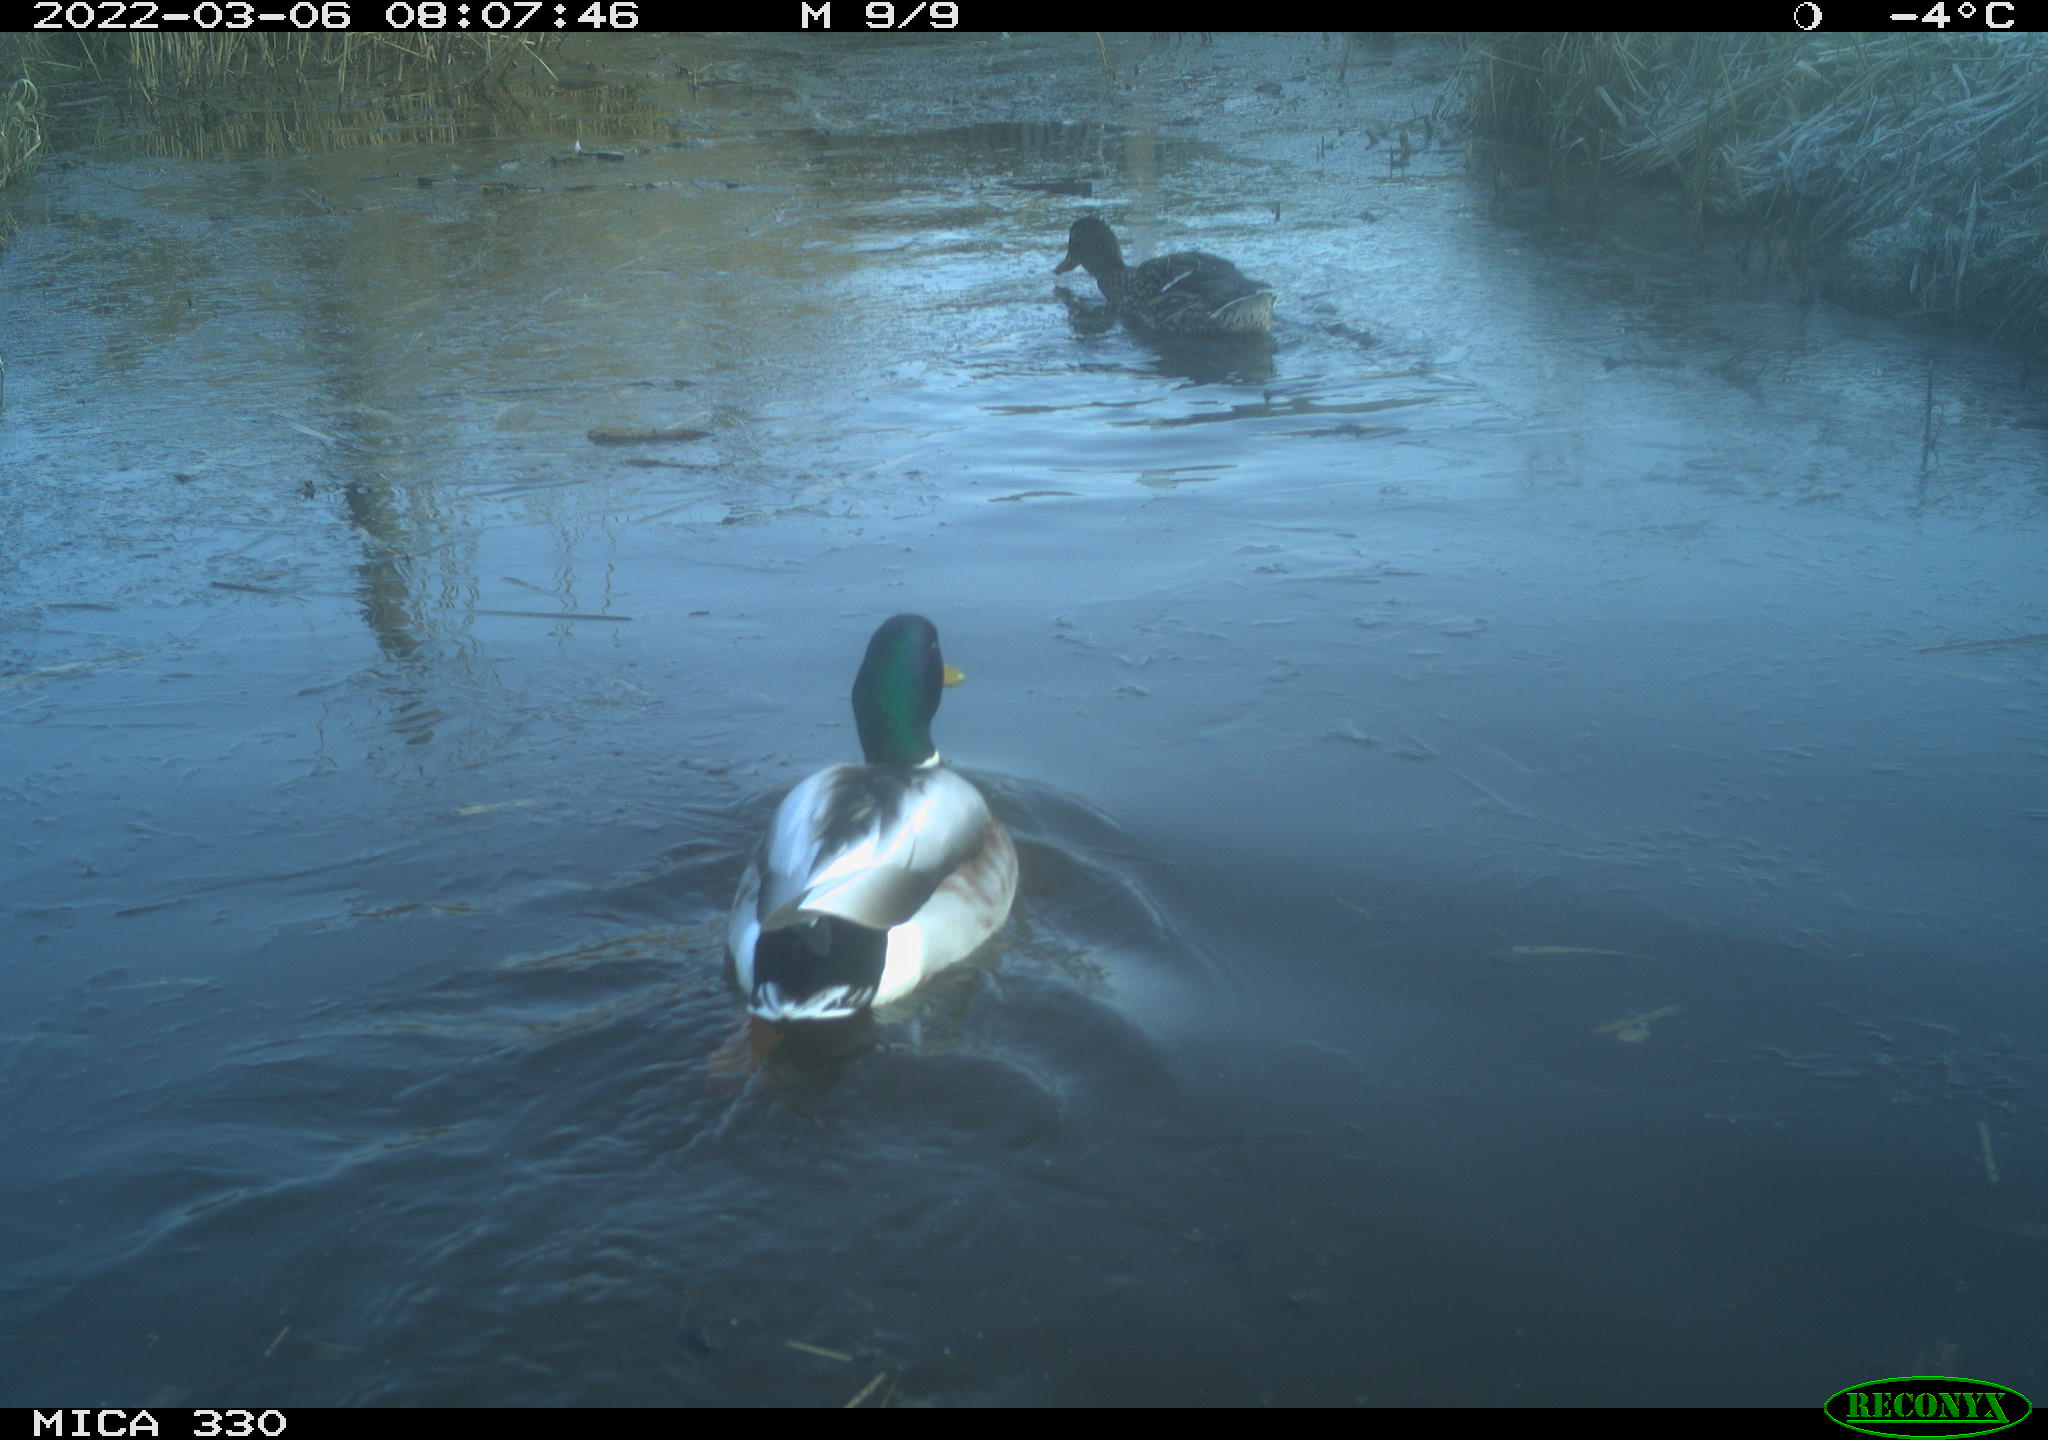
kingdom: Animalia
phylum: Chordata
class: Aves
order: Anseriformes
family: Anatidae
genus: Anas
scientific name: Anas platyrhynchos
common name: Mallard
